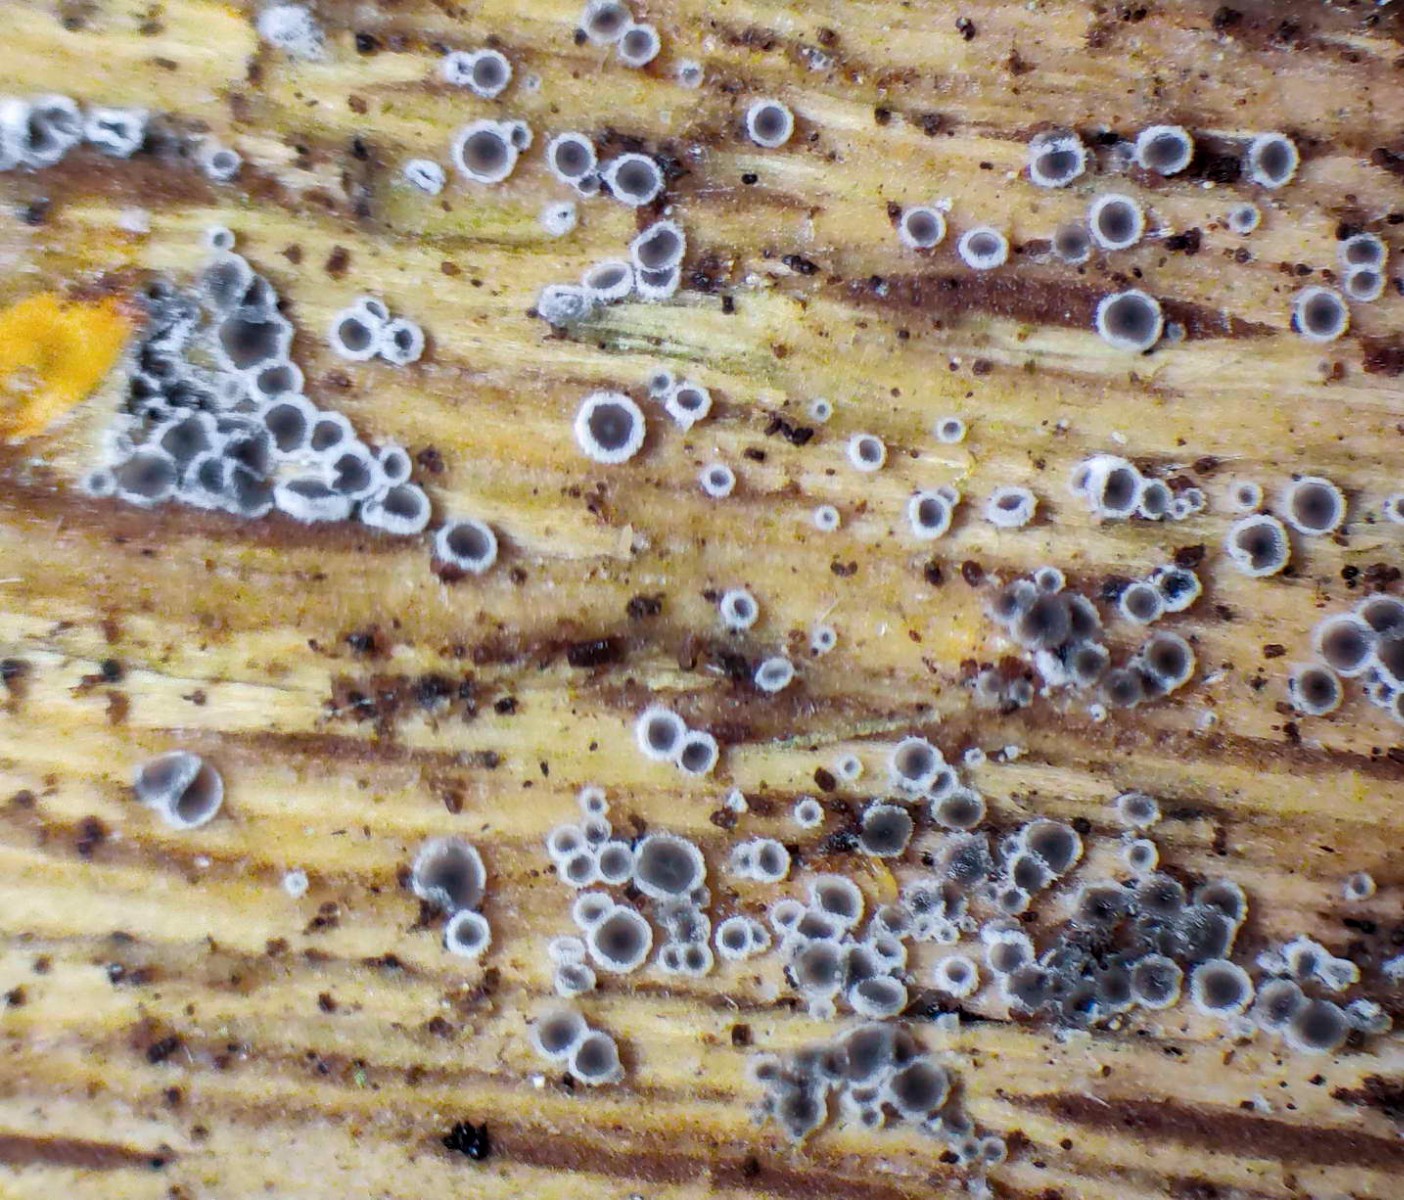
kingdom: Fungi
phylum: Ascomycota
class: Leotiomycetes
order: Helotiales
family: Arachnopezizaceae
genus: Eriopezia
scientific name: Eriopezia caesia
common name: ege-spindskive
